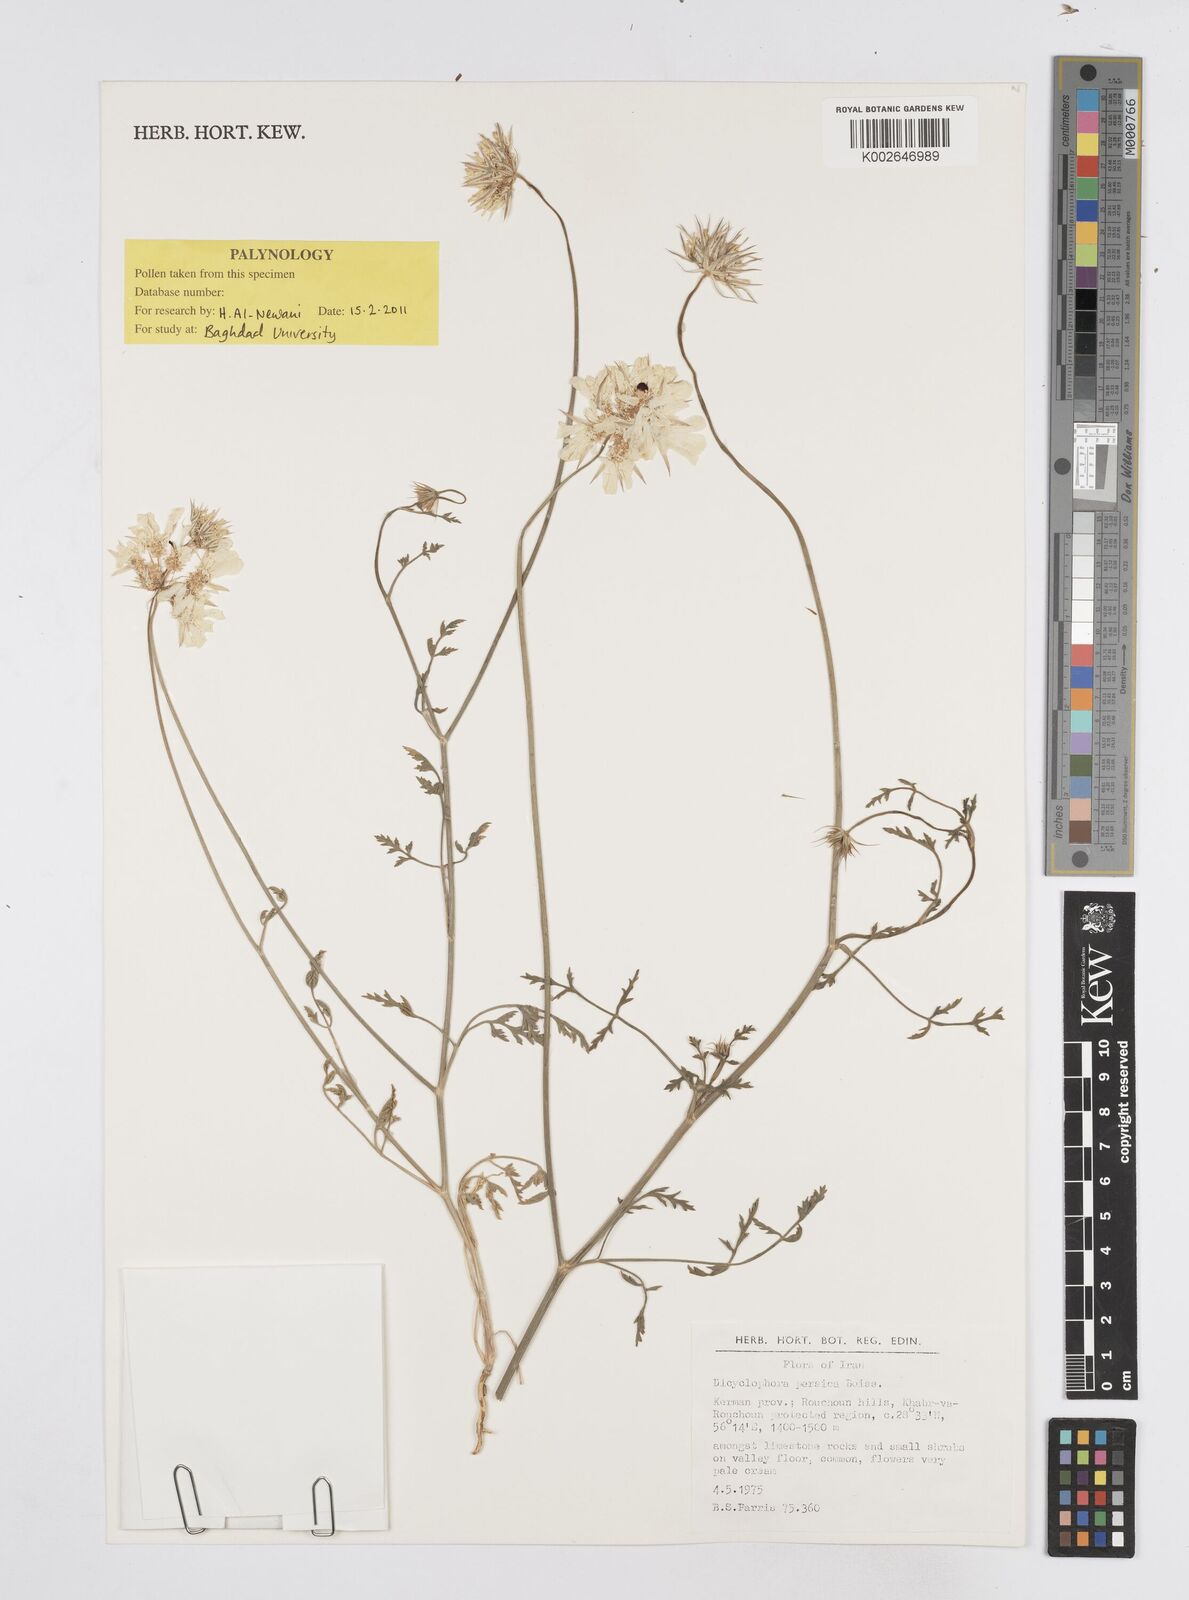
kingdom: Plantae
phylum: Tracheophyta
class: Magnoliopsida
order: Apiales
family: Apiaceae
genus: Dicyclophora
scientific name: Dicyclophora persica
